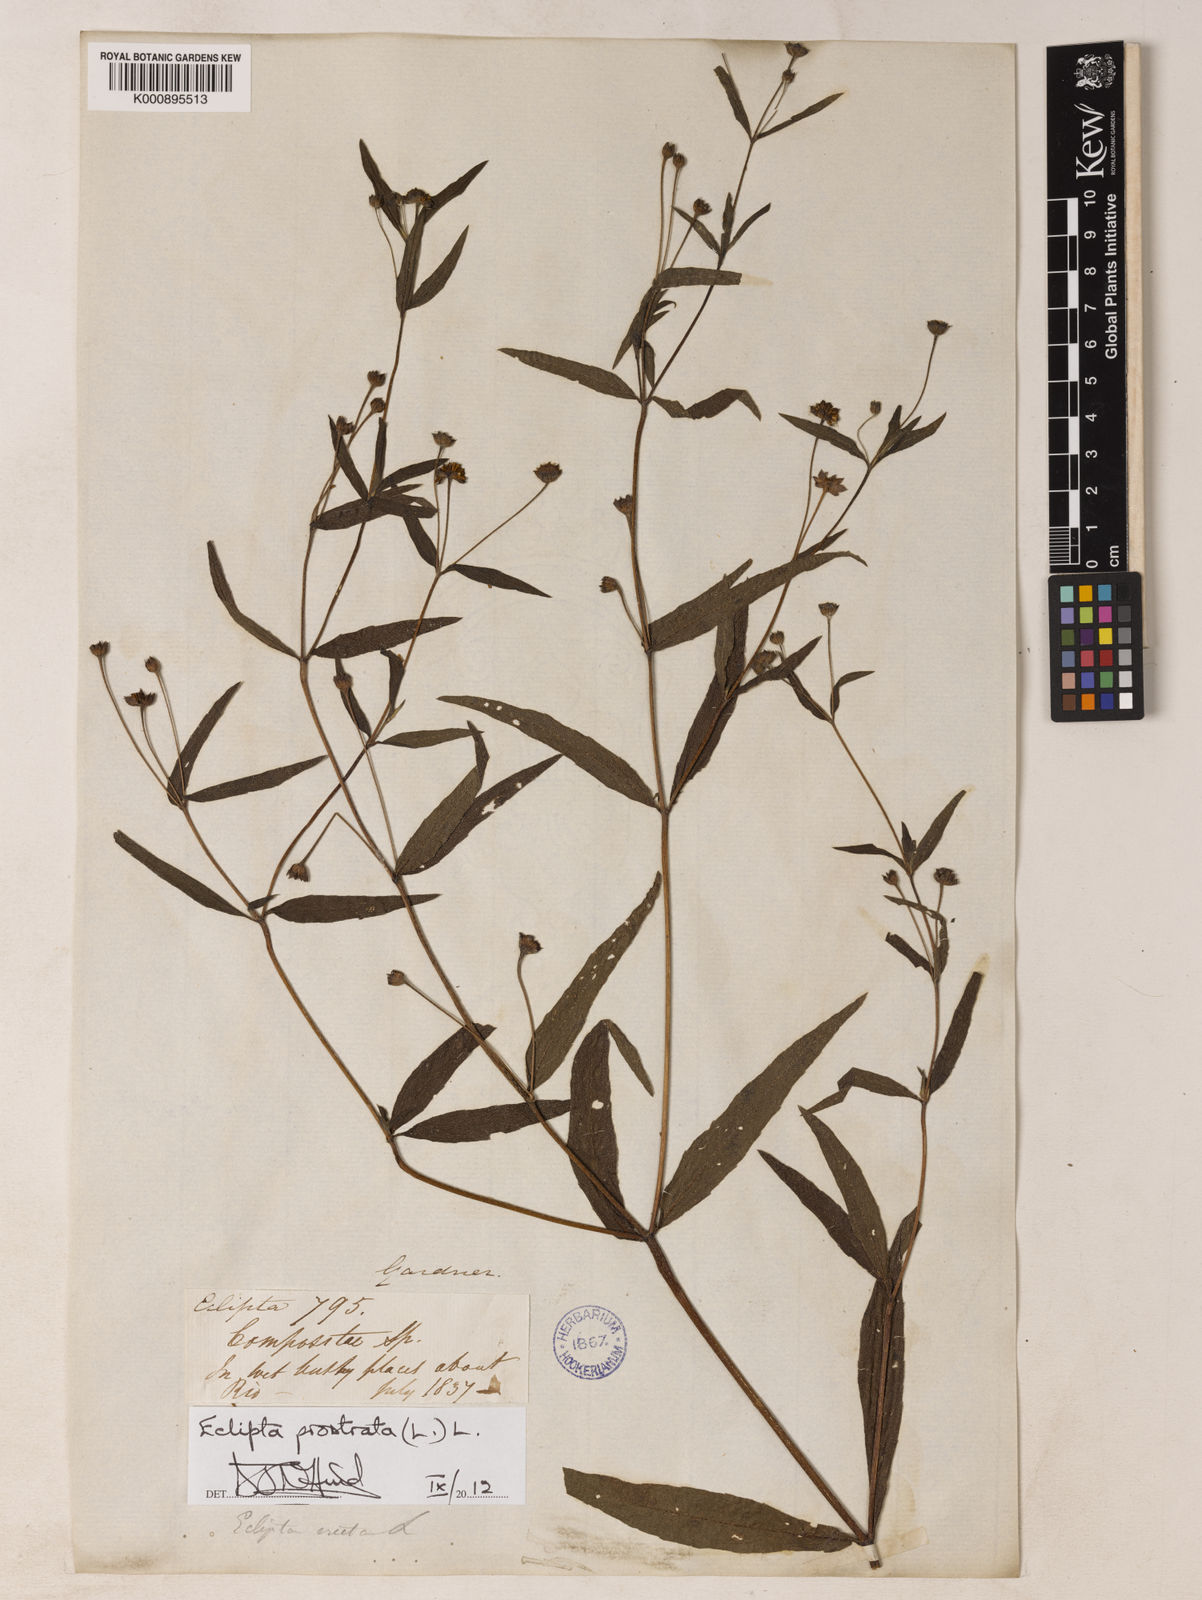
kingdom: Plantae
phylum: Tracheophyta
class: Magnoliopsida
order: Asterales
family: Asteraceae
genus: Eclipta
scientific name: Eclipta prostrata
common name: False daisy
